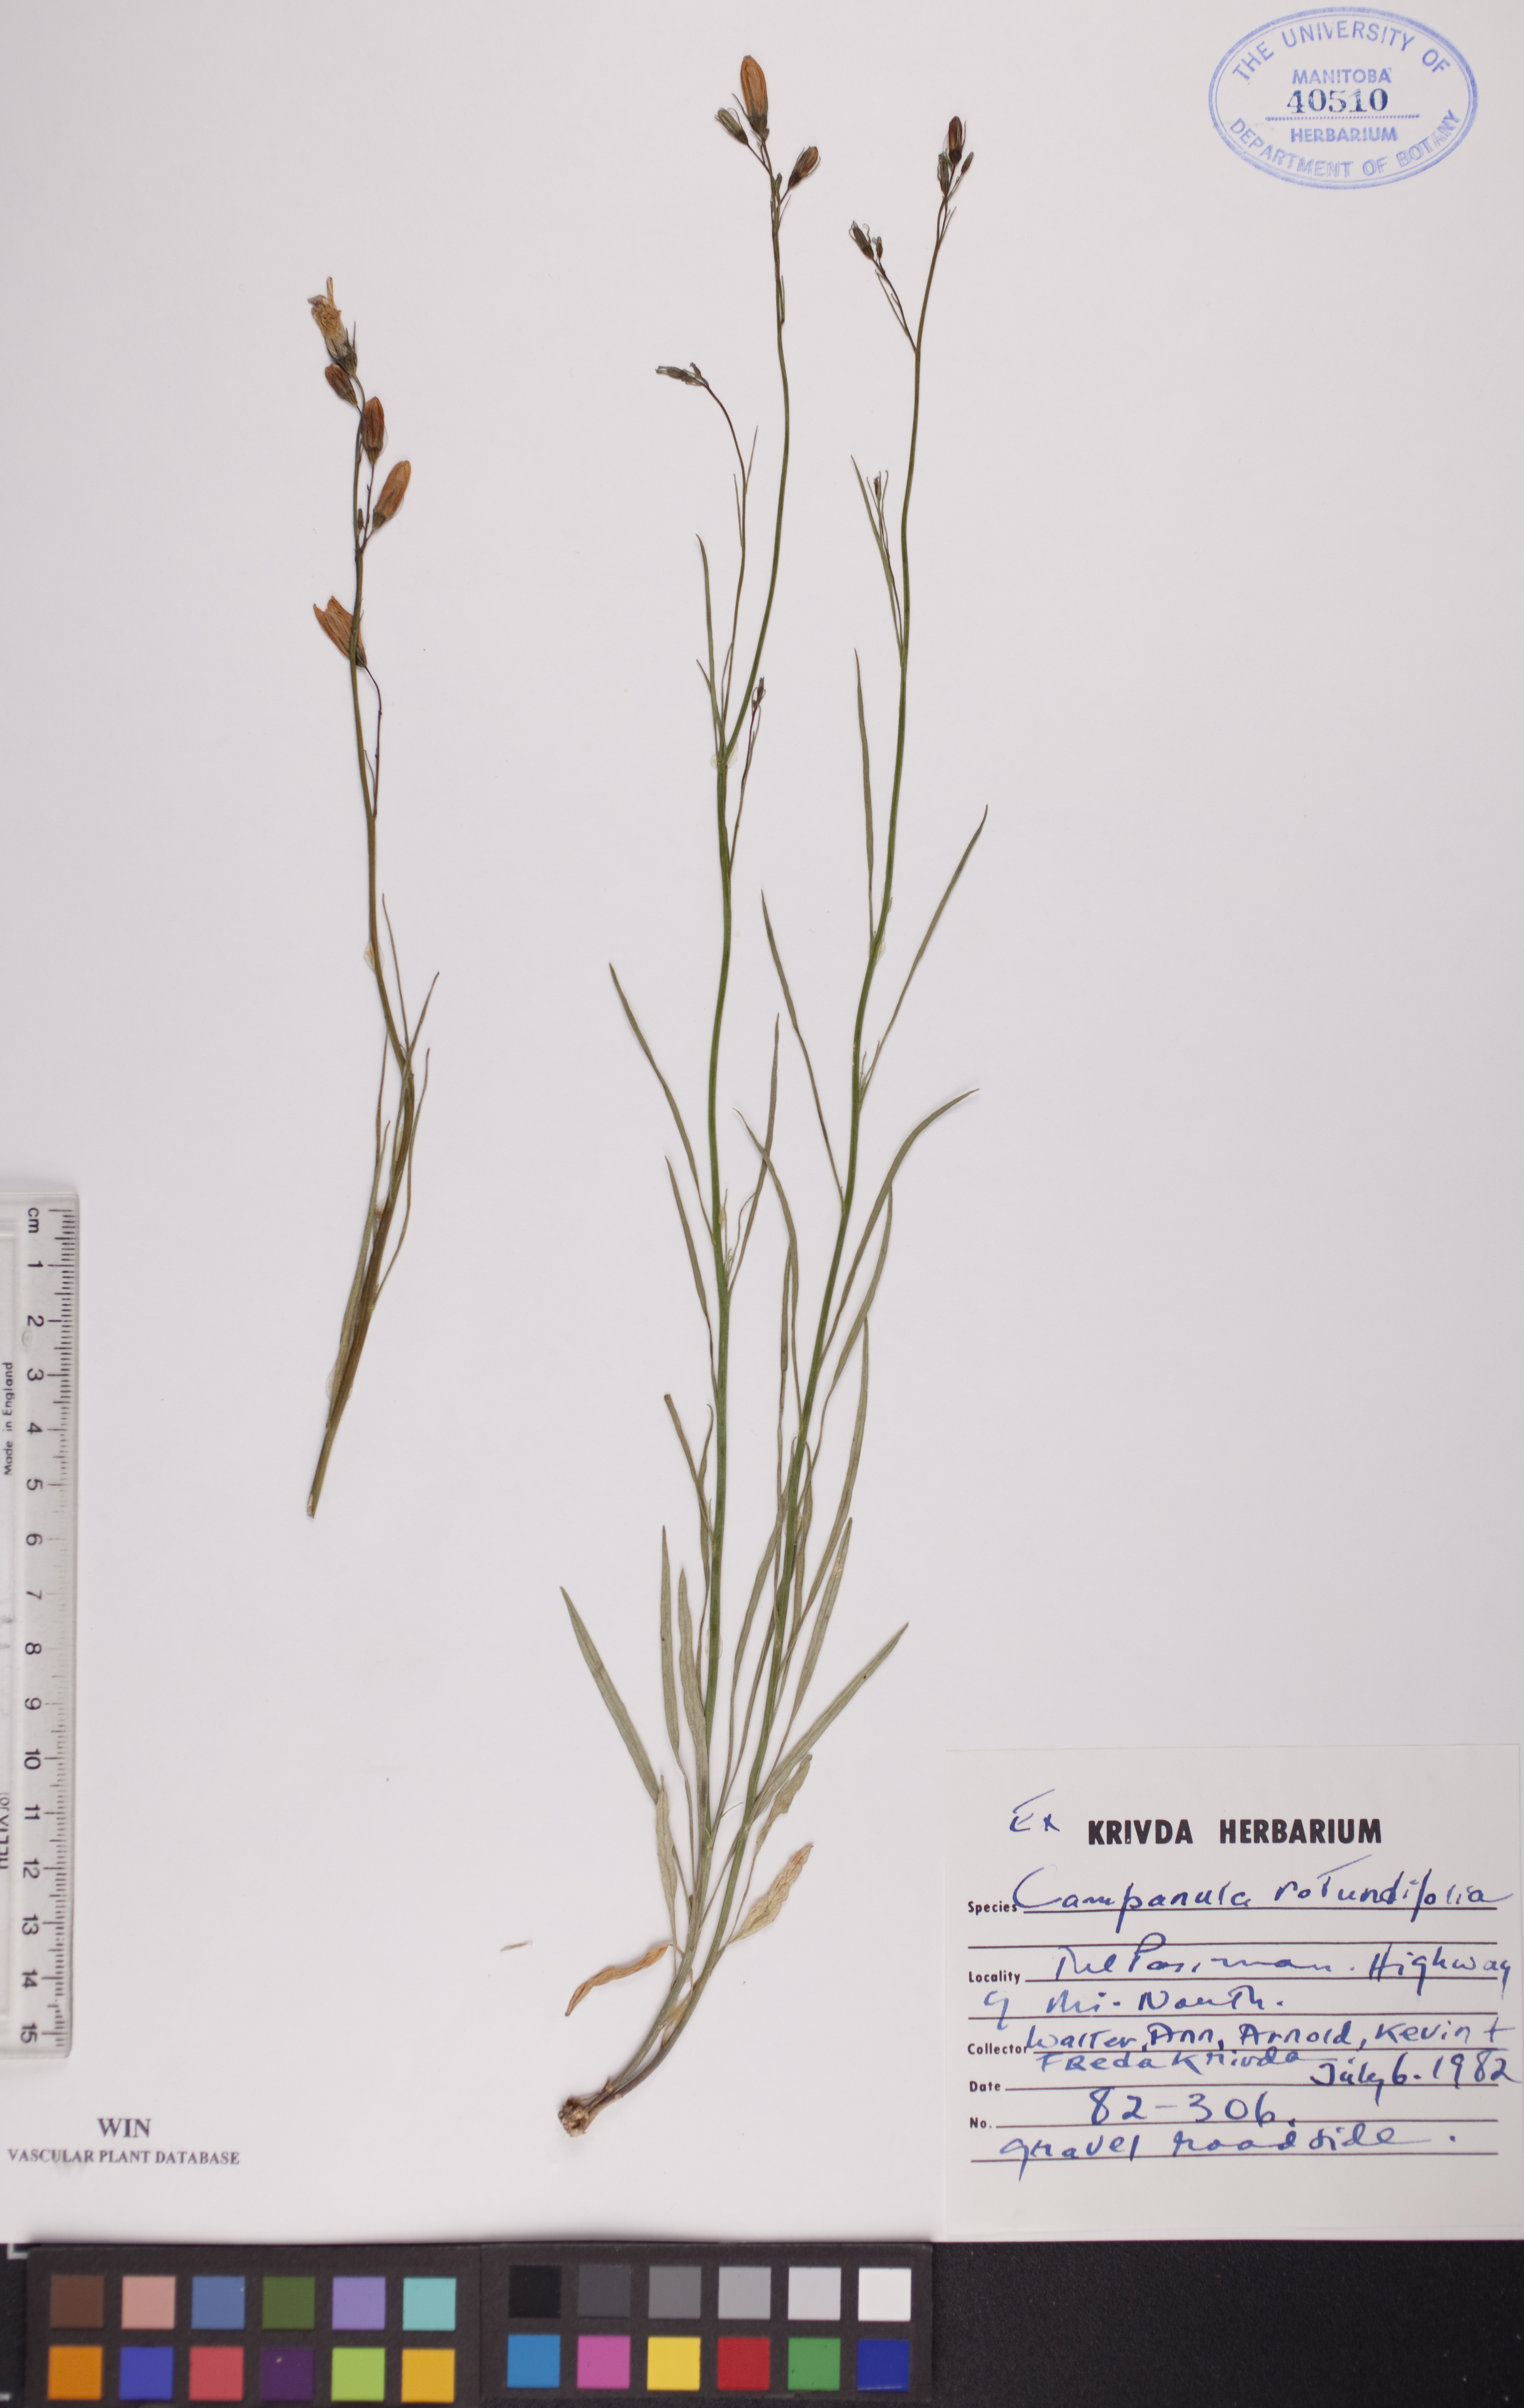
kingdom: Plantae
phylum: Tracheophyta
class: Magnoliopsida
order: Asterales
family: Campanulaceae
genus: Campanula
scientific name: Campanula rotundifolia
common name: Harebell
